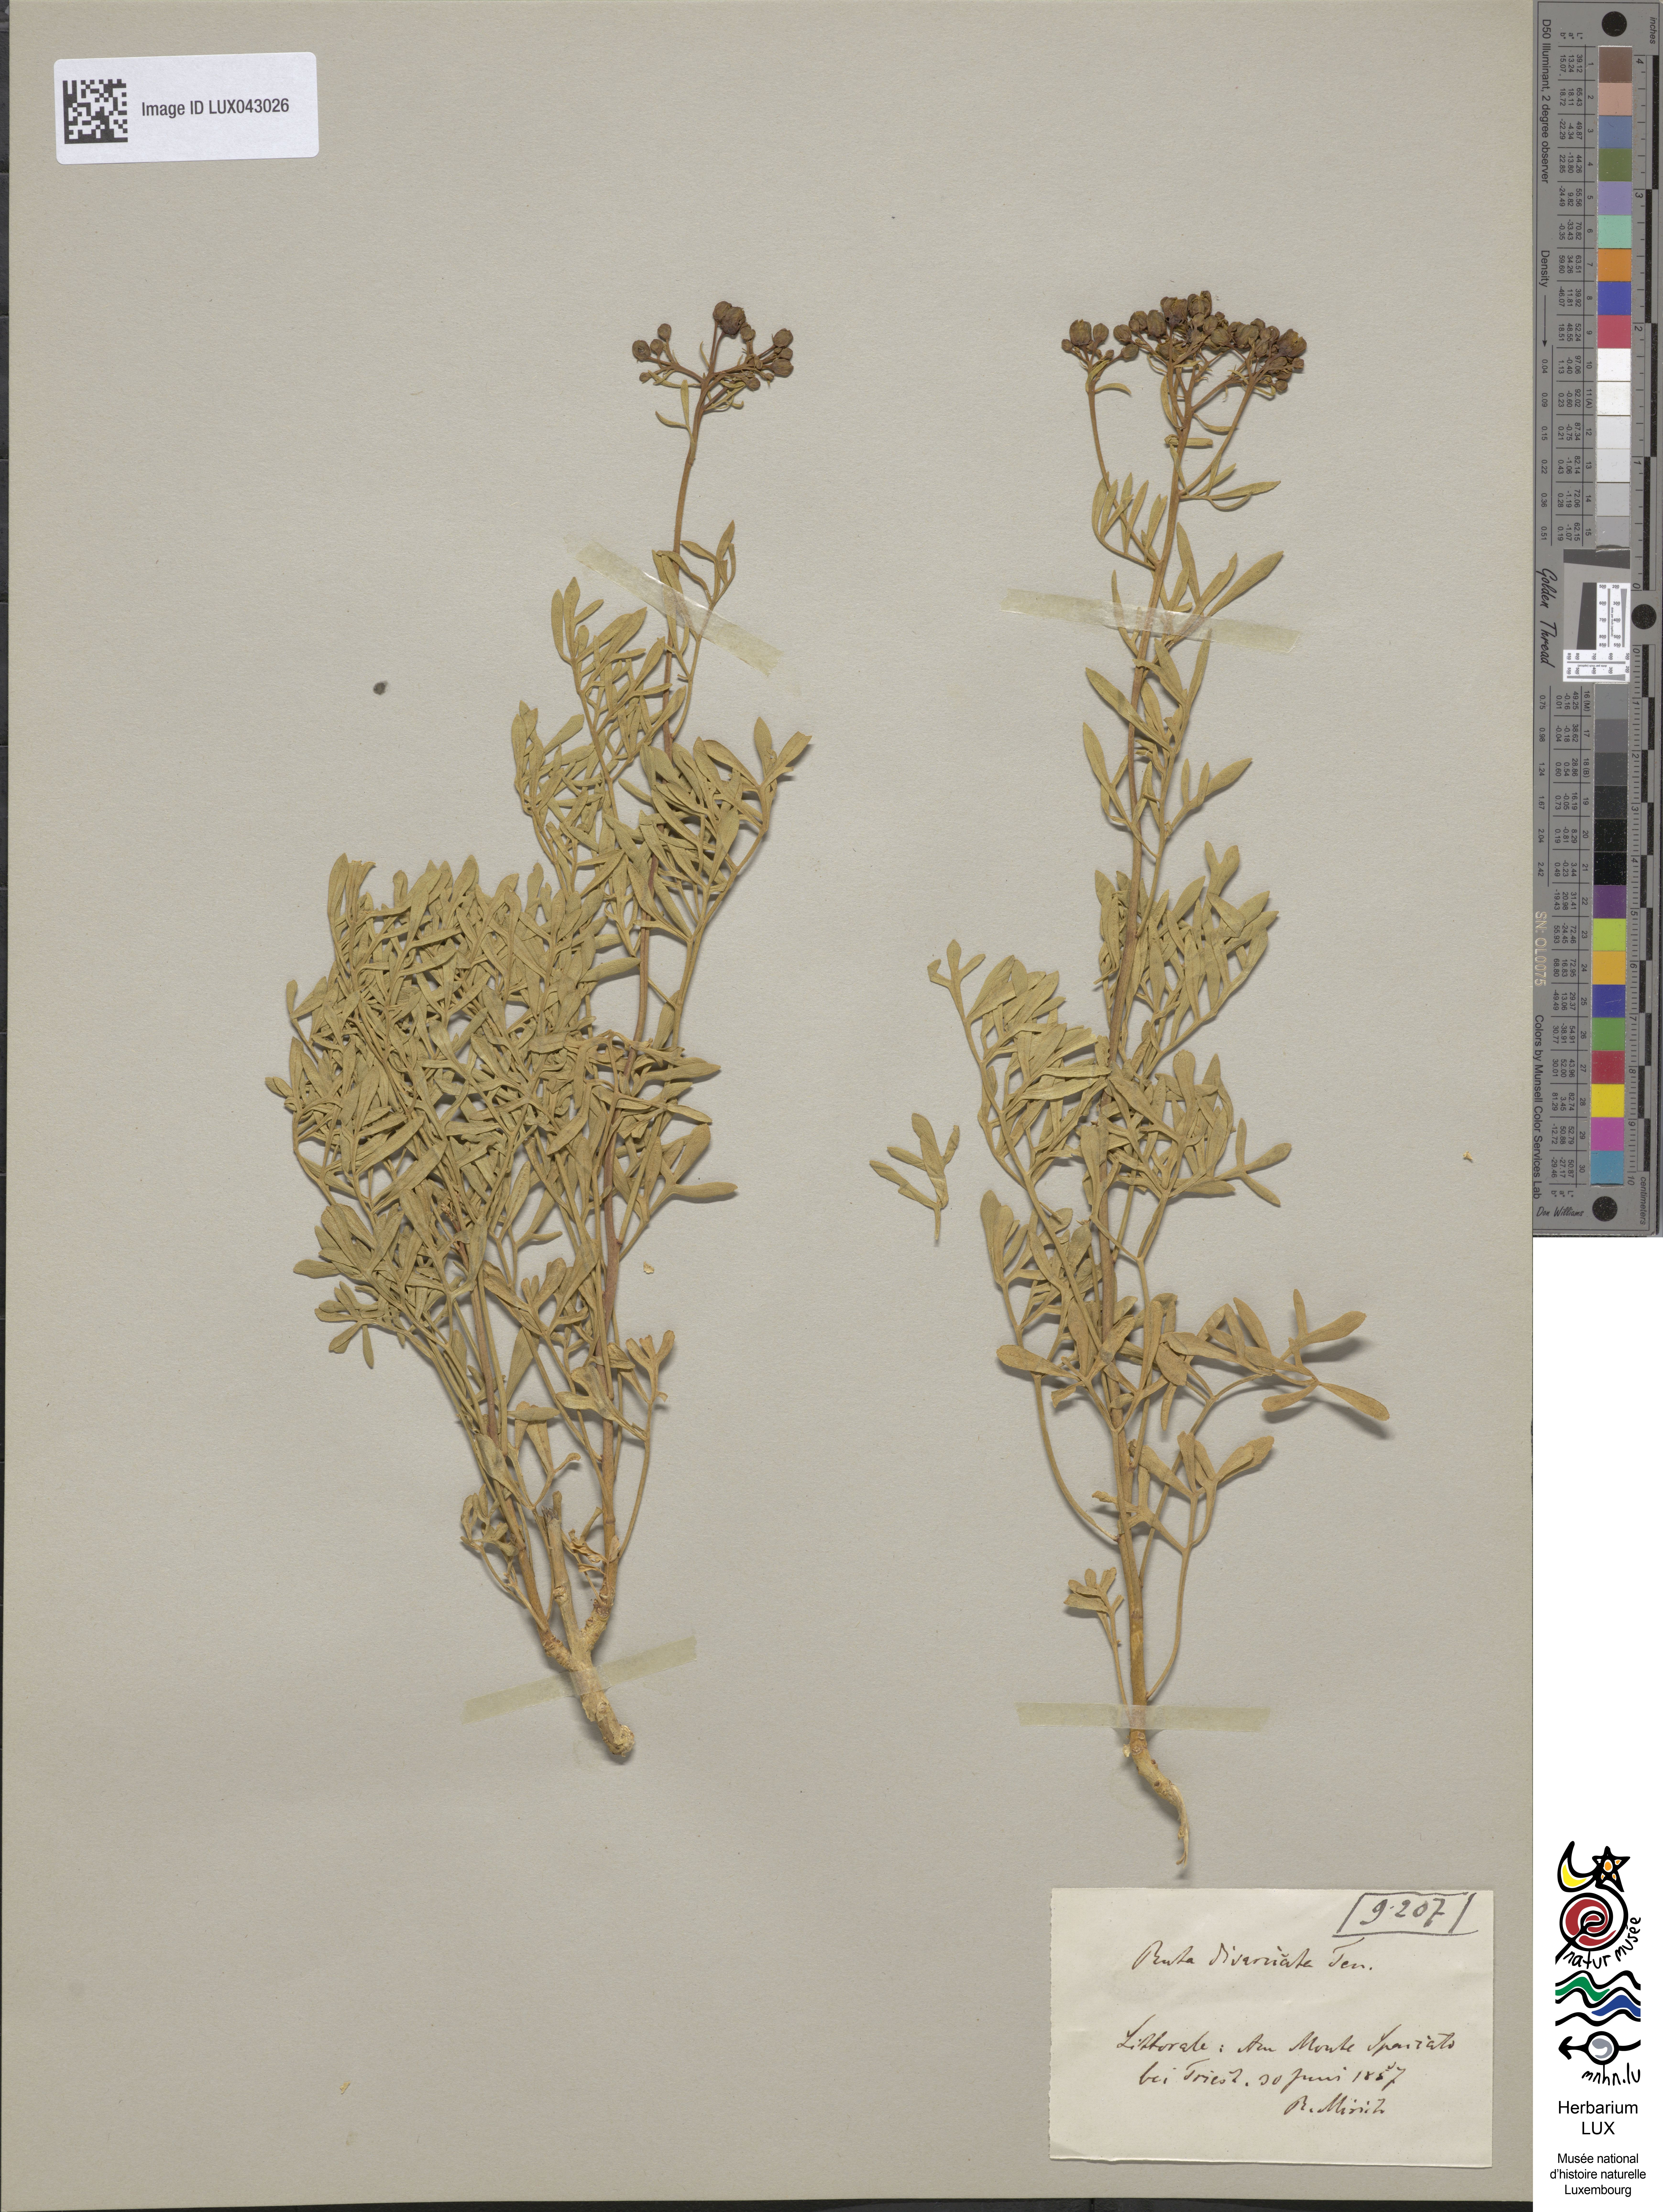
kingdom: Plantae
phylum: Tracheophyta
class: Magnoliopsida
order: Sapindales
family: Rutaceae
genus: Ruta
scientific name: Ruta graveolens
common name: Common rue
